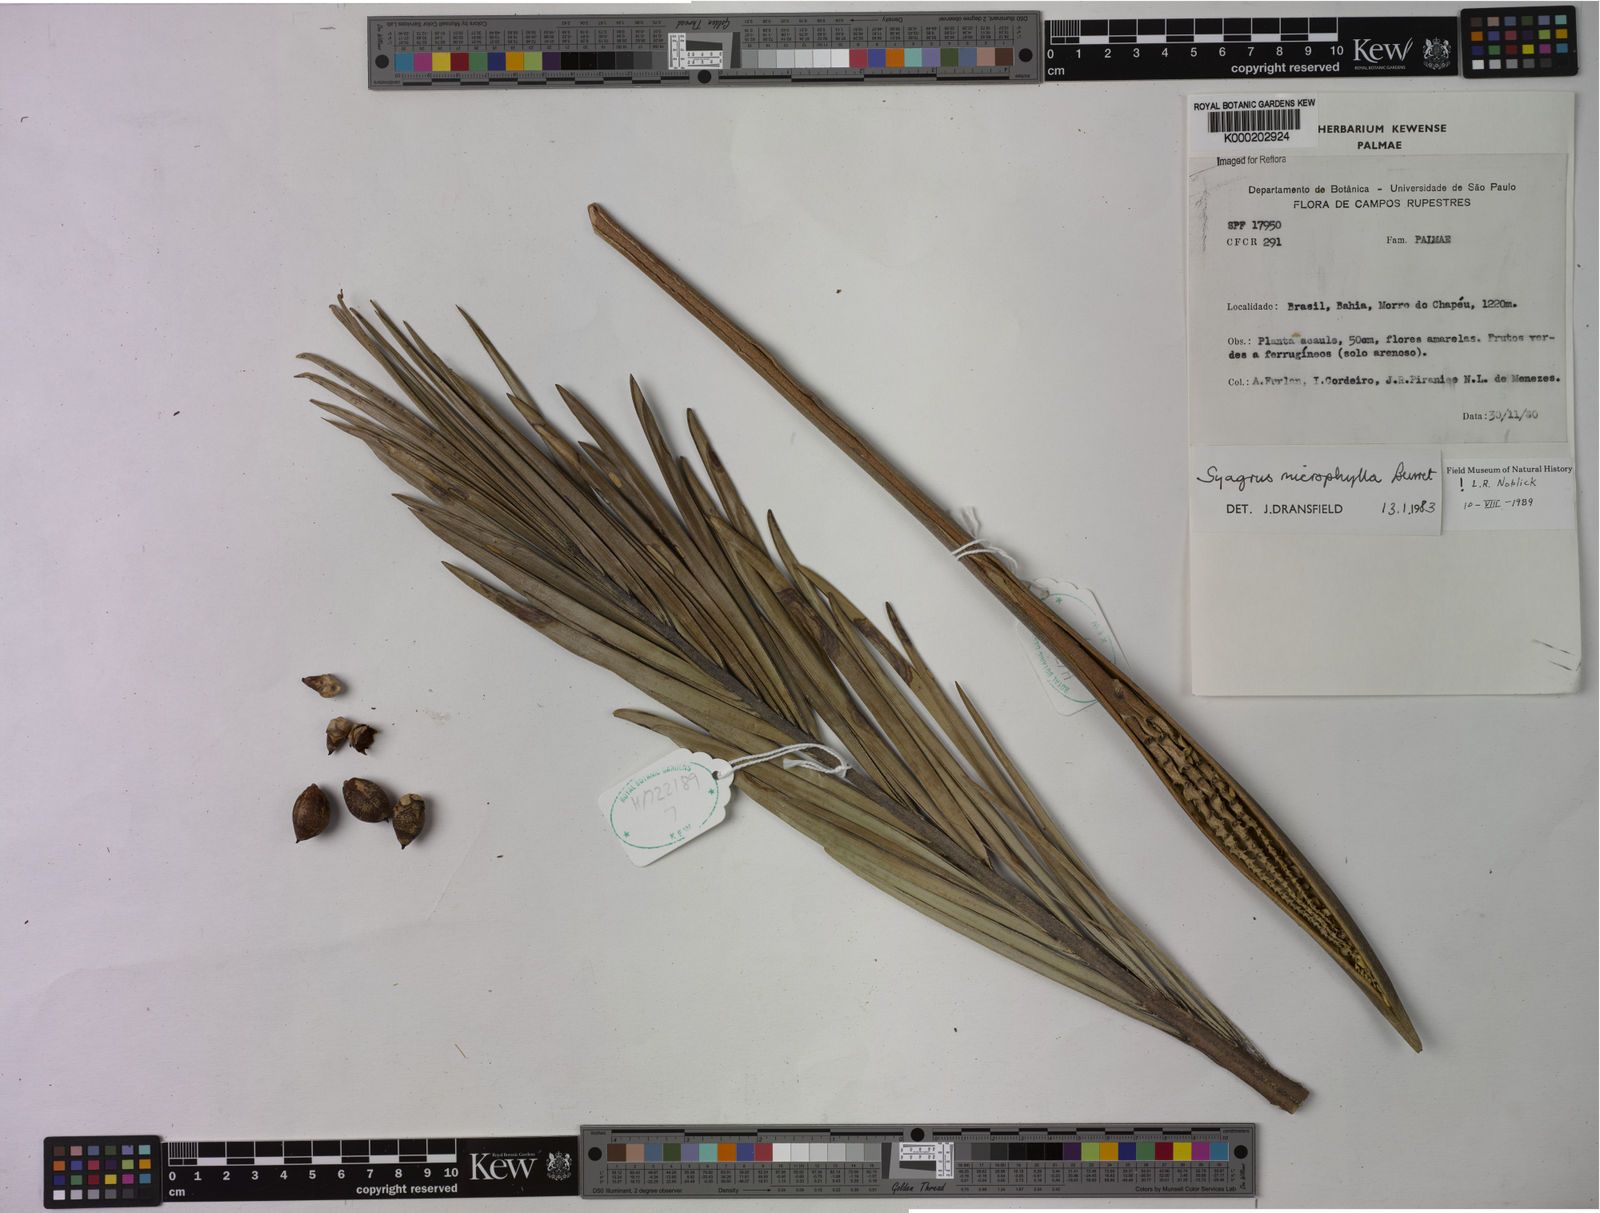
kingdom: Plantae
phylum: Tracheophyta
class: Liliopsida
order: Arecales
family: Arecaceae
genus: Syagrus
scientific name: Syagrus microphylla
